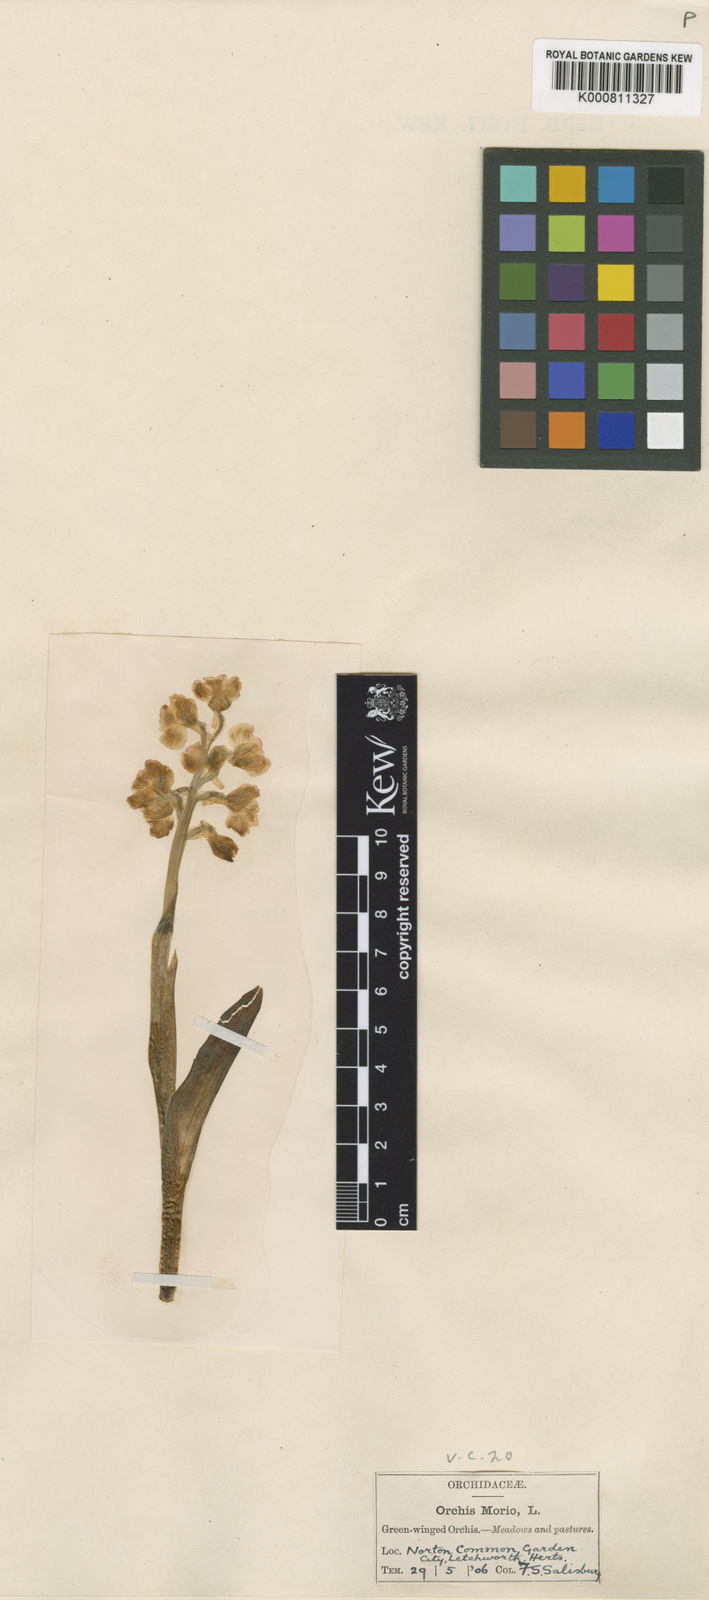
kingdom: Plantae
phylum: Tracheophyta
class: Liliopsida
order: Asparagales
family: Orchidaceae
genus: Anacamptis
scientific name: Anacamptis morio
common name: Green-winged orchid
